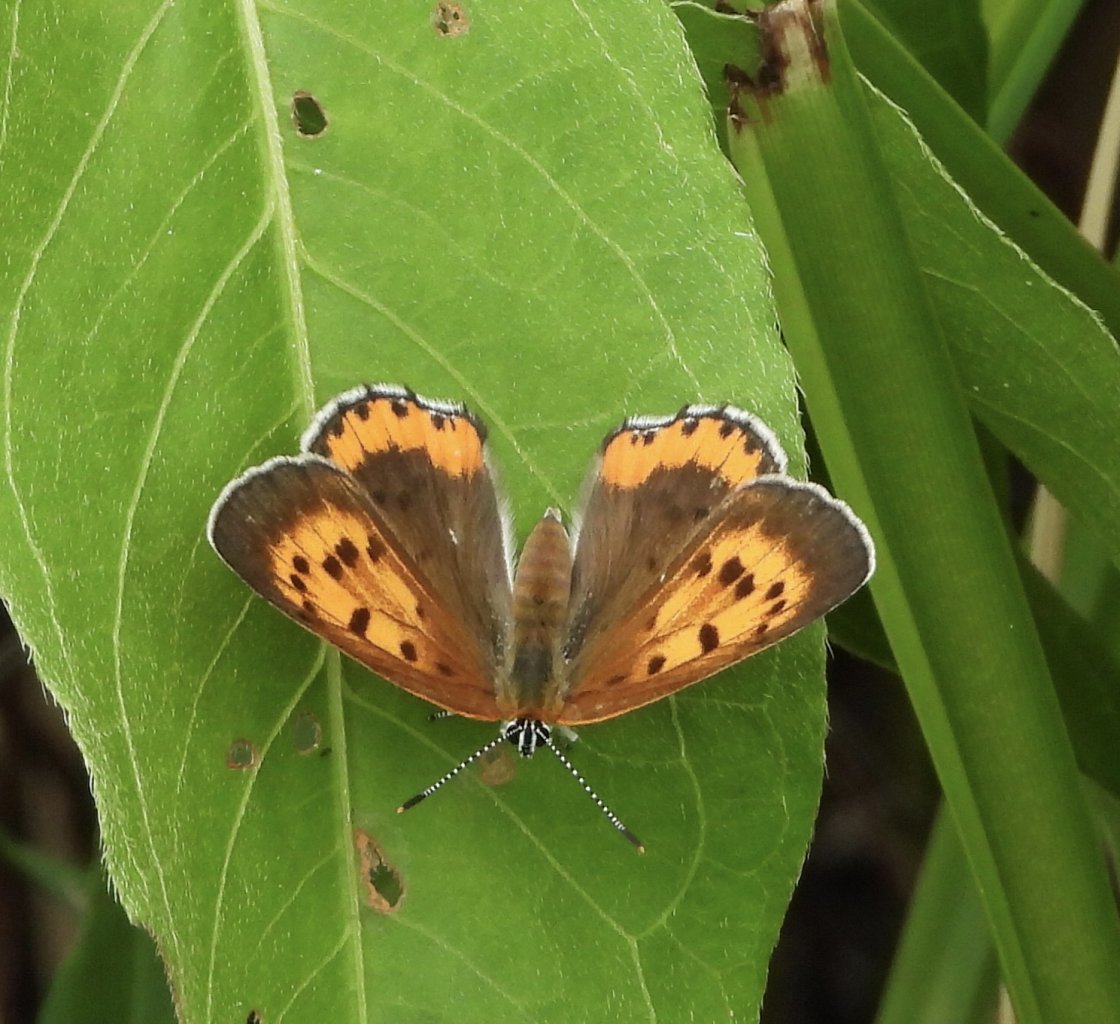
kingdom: Animalia
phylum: Arthropoda
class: Insecta
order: Lepidoptera
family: Sesiidae
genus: Sesia
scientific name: Sesia Lycaena hyllus
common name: Bronze Copper
